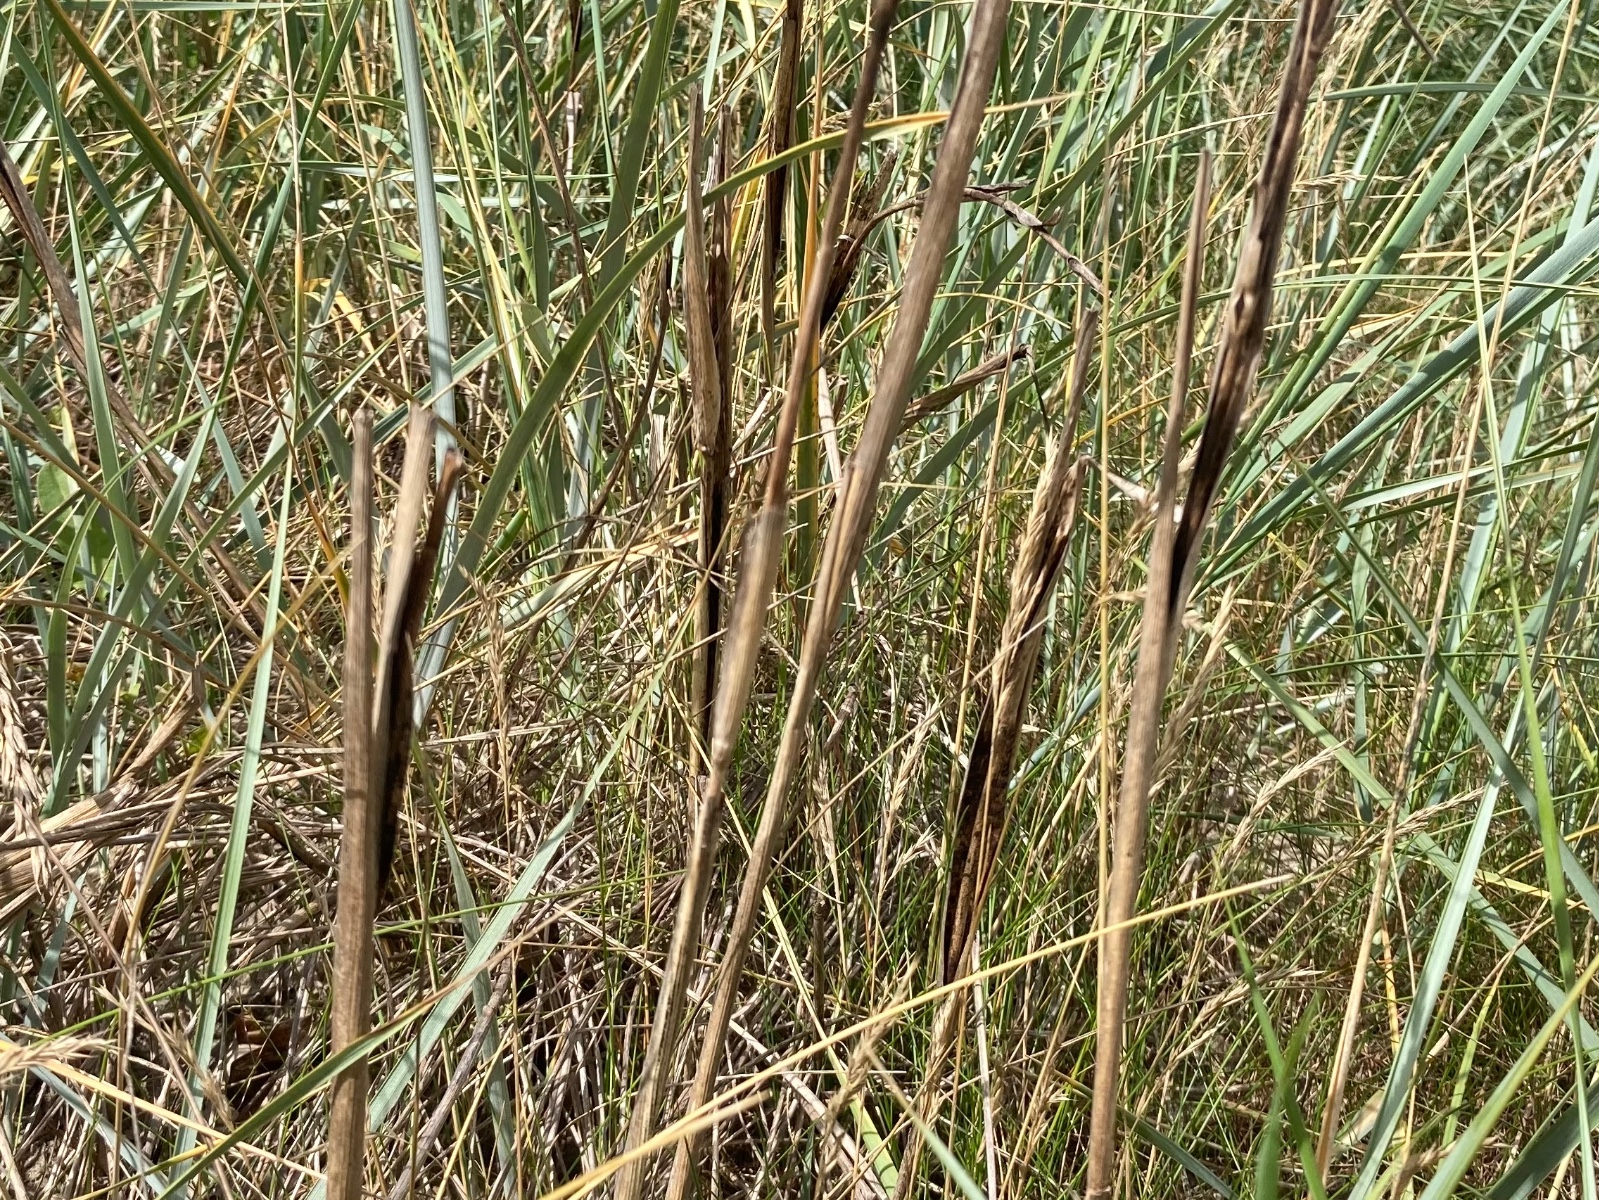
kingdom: Fungi
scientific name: Fungi
